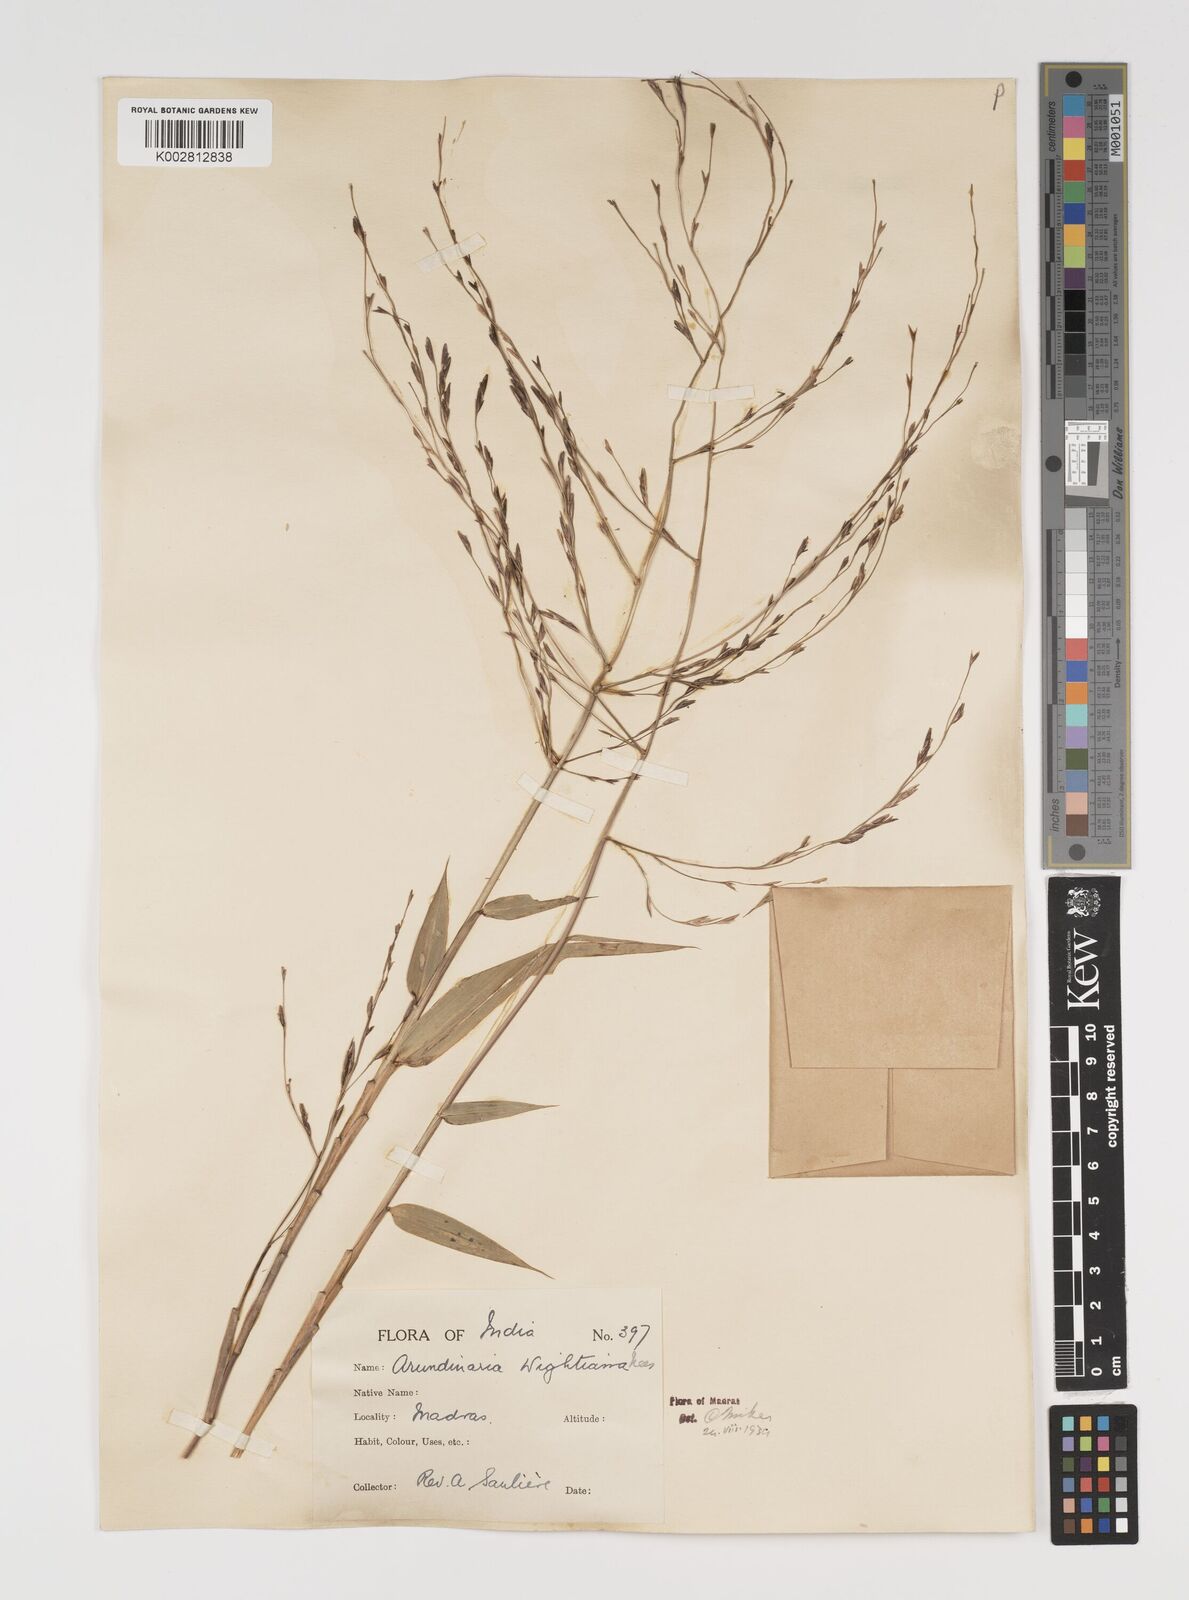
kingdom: Plantae
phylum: Tracheophyta
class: Liliopsida
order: Poales
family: Poaceae
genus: Kuruna
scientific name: Kuruna walkeriana
